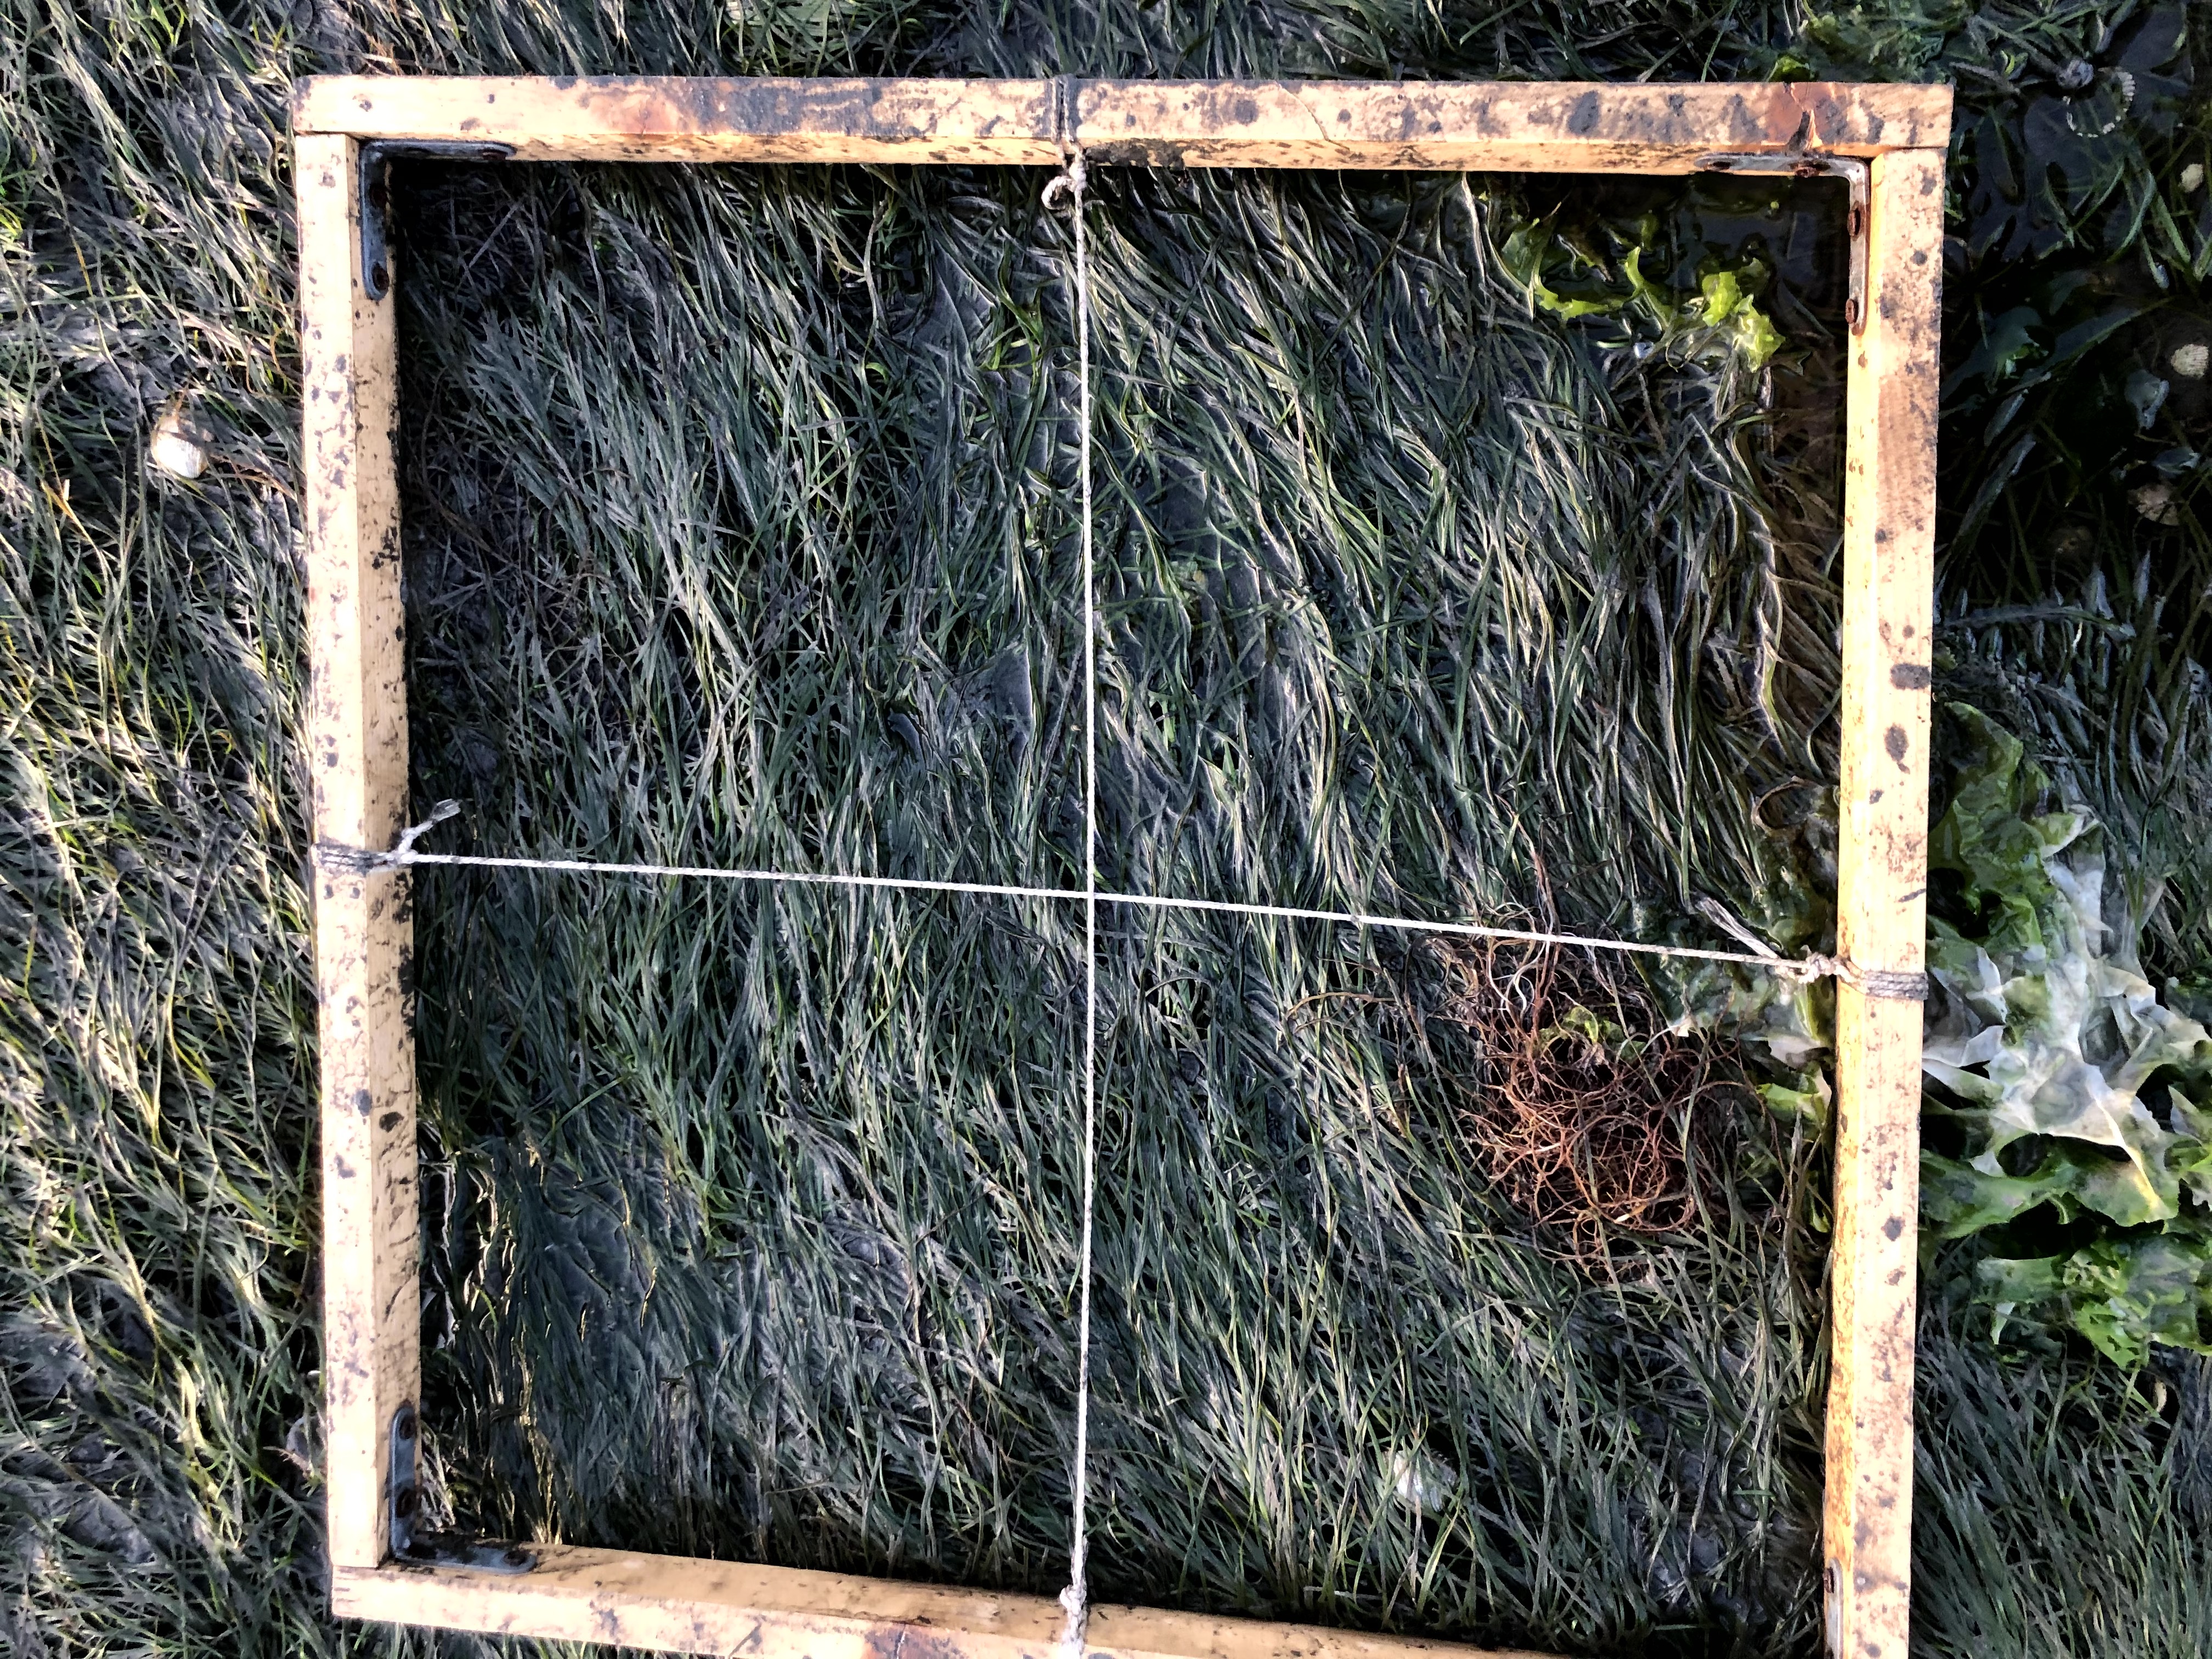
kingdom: Plantae
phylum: Rhodophyta
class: Florideophyceae
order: Gracilariales
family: Gracilariaceae
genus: Gracilaria
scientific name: Gracilaria vermiculophylla
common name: Algae
